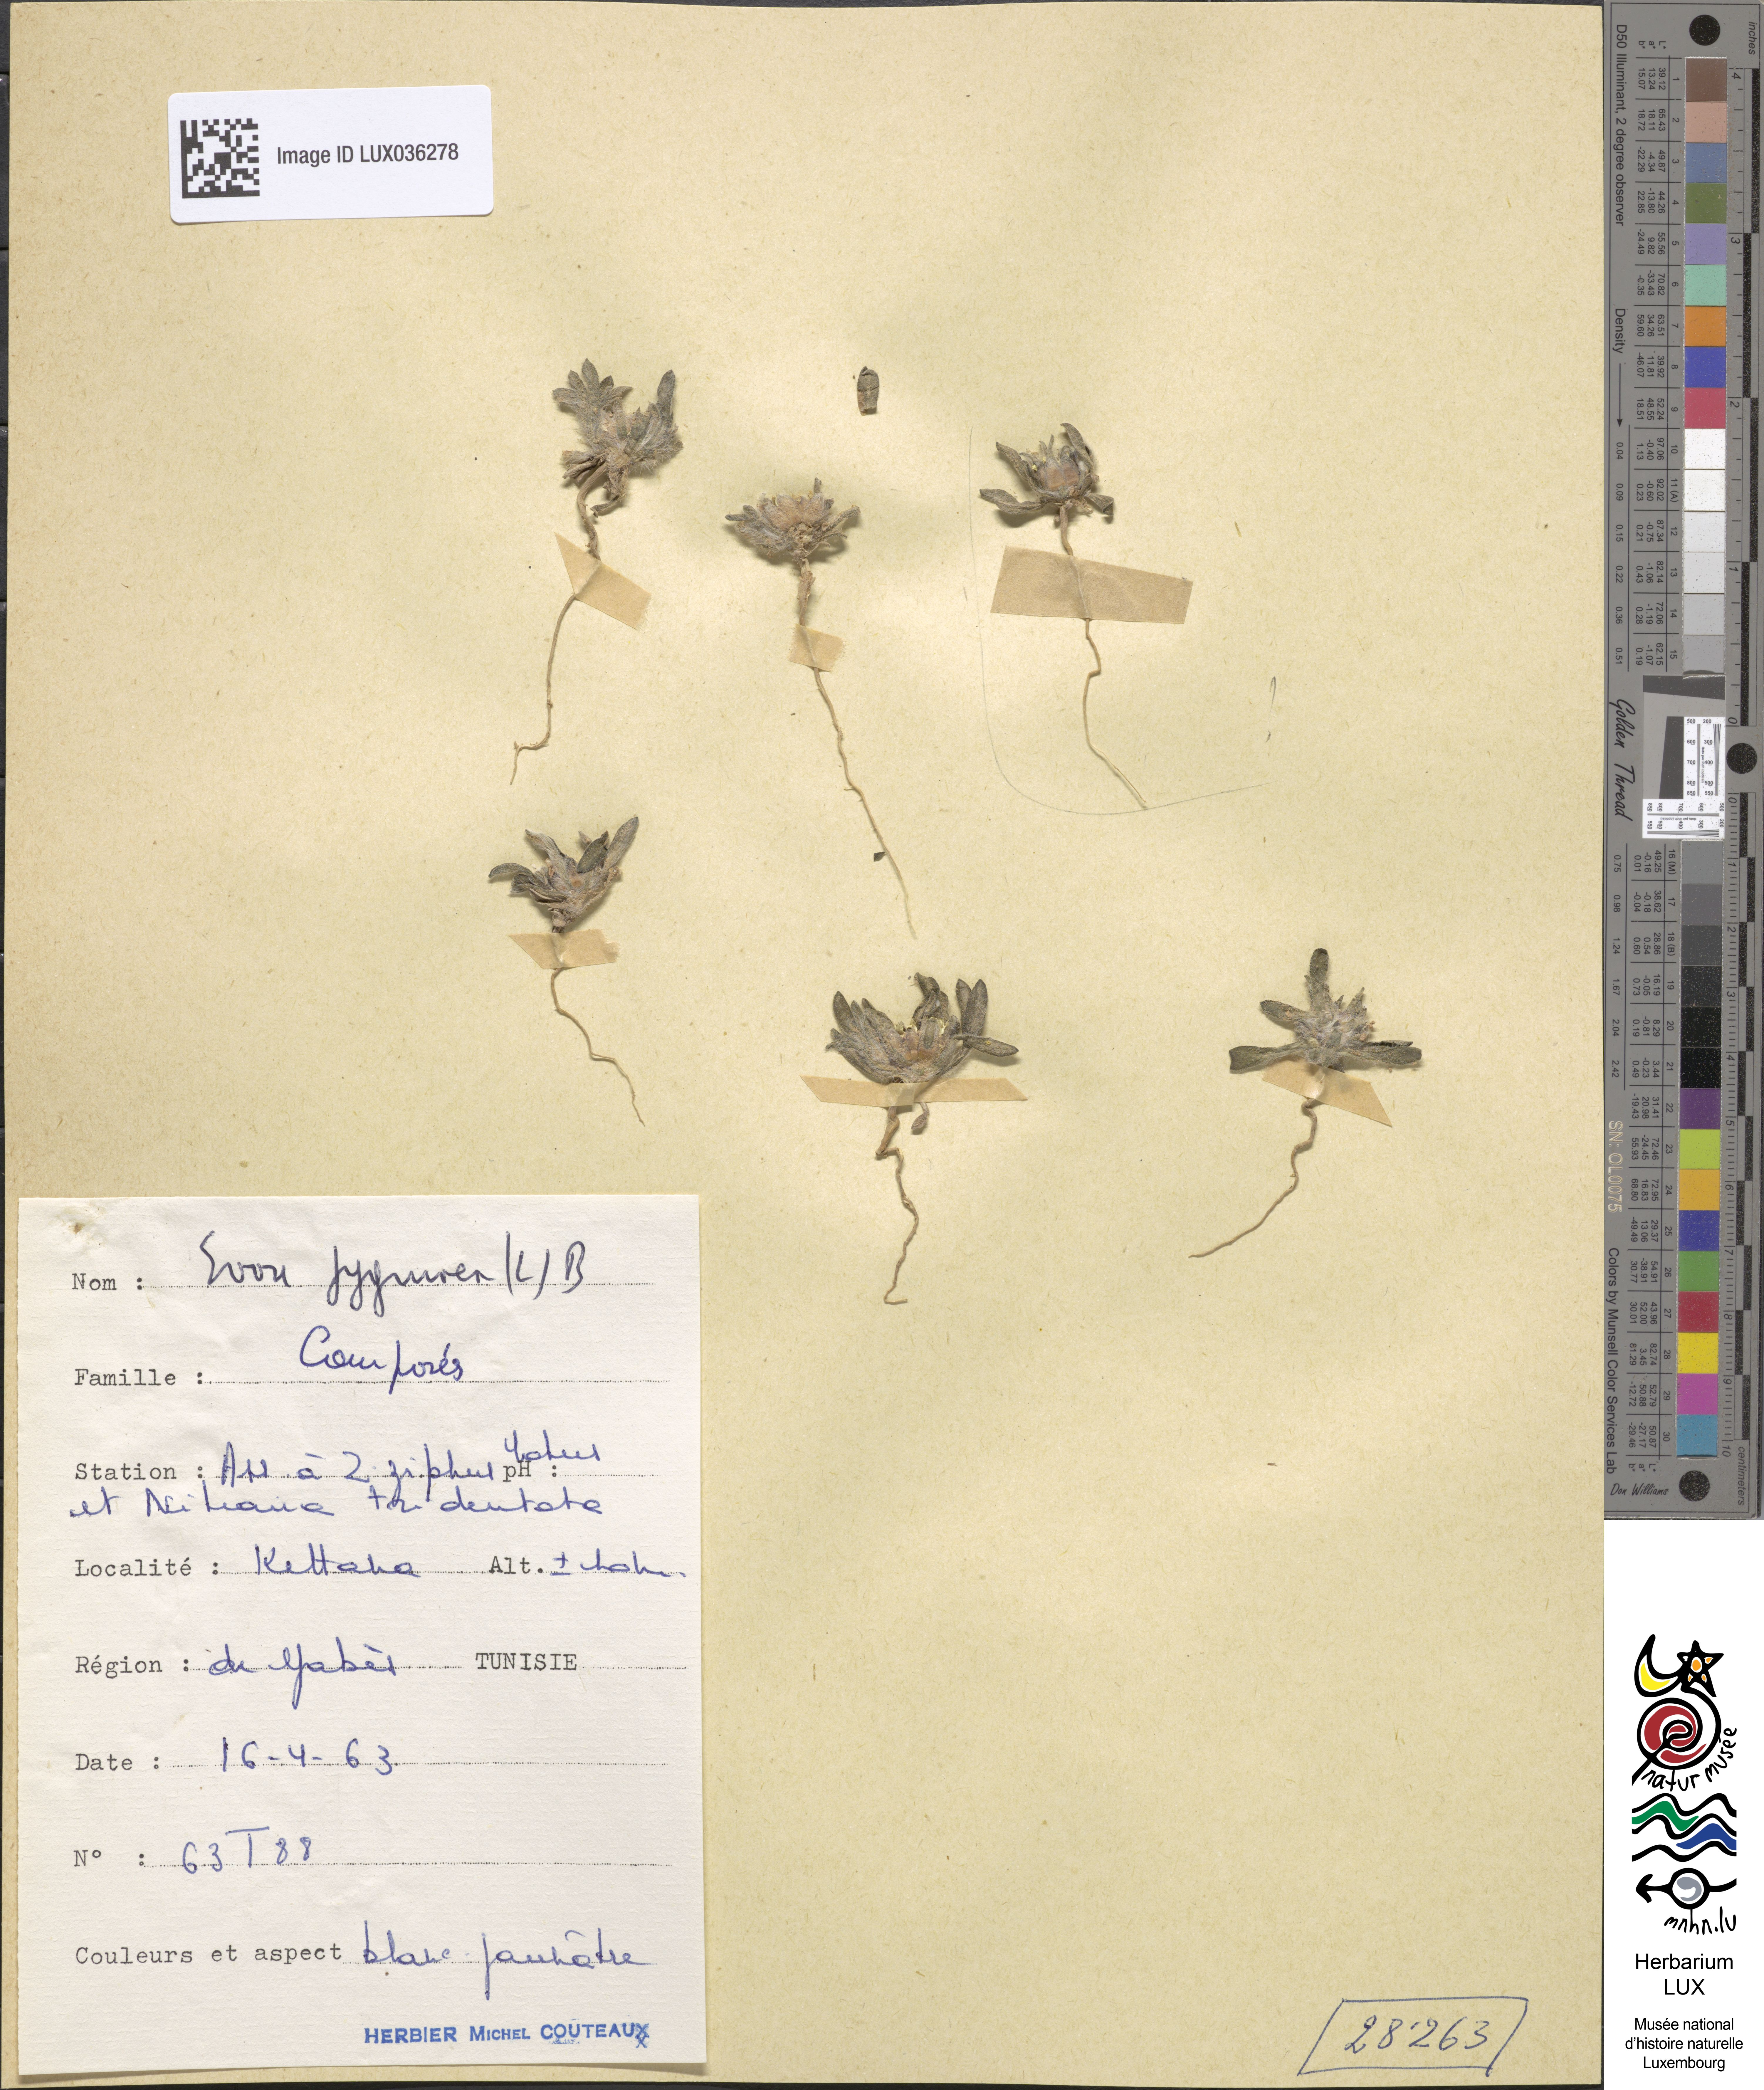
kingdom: Plantae
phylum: Tracheophyta
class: Magnoliopsida
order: Asterales
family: Asteraceae
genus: Filago
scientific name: Filago pygmaea
